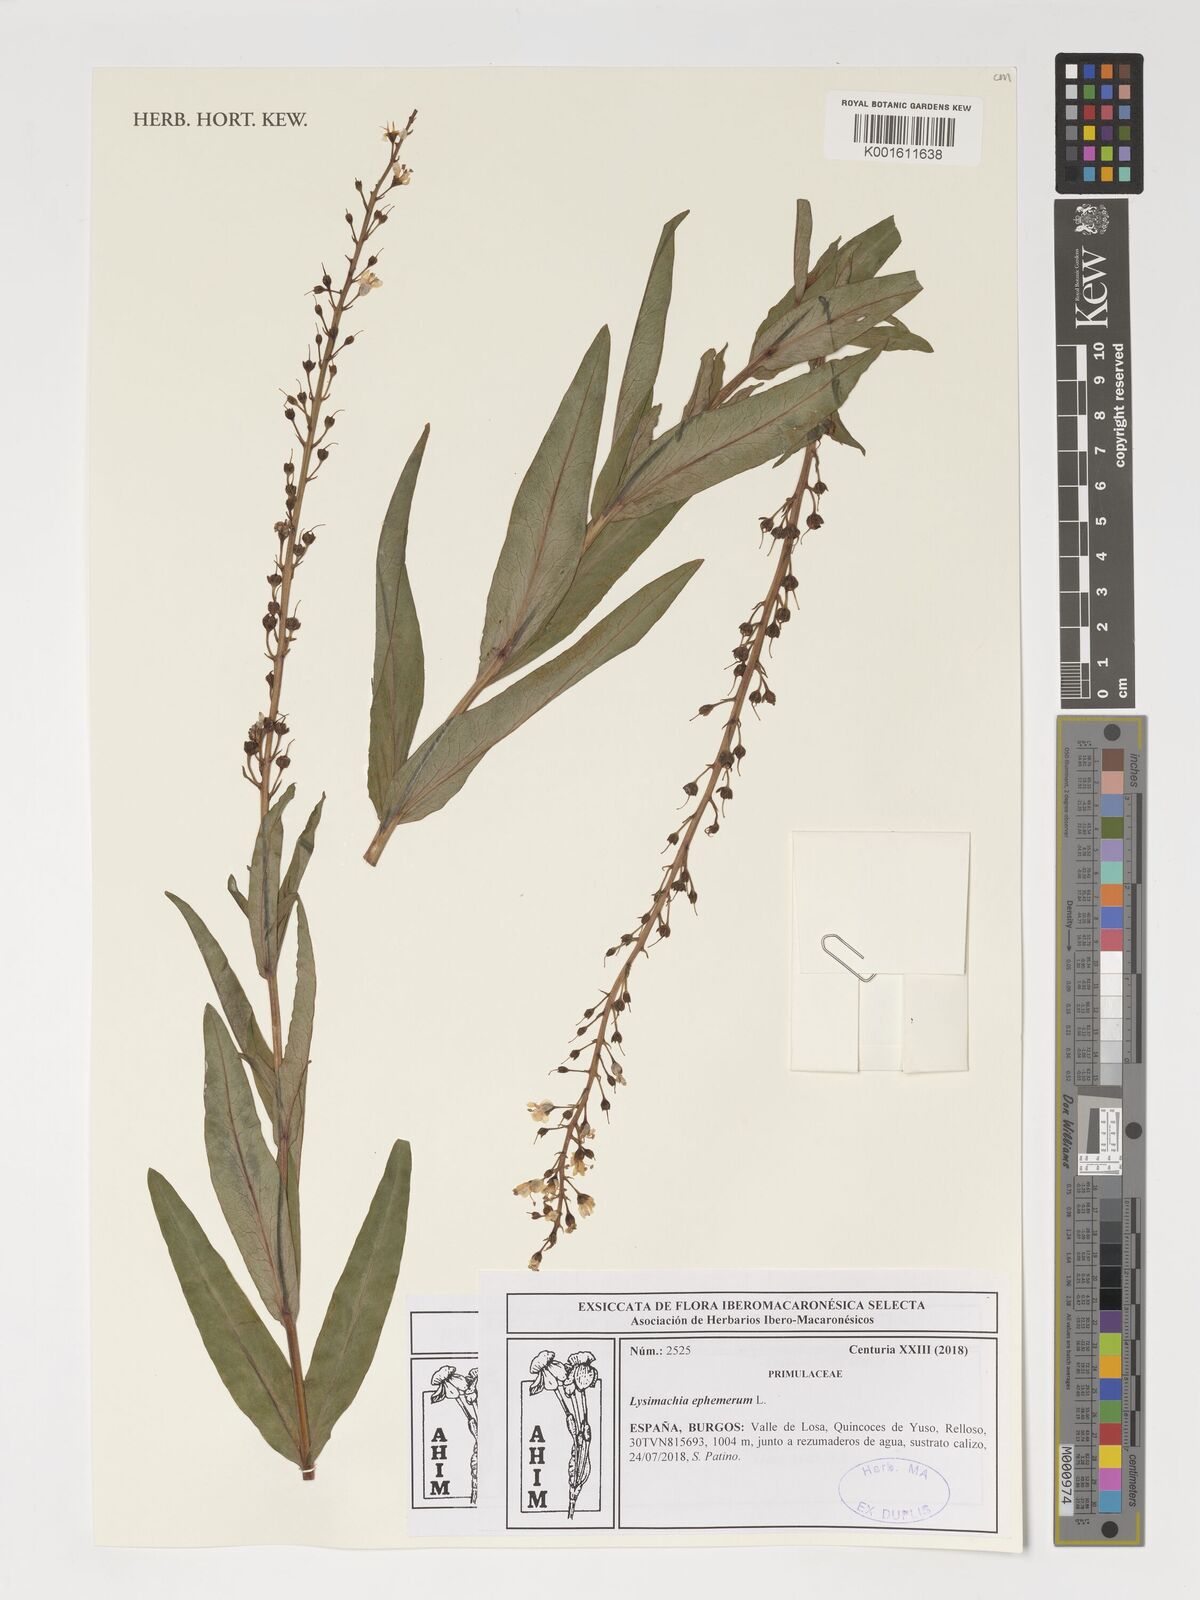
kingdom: Plantae
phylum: Tracheophyta
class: Magnoliopsida
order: Ericales
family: Primulaceae
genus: Lysimachia
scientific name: Lysimachia ephemerum
